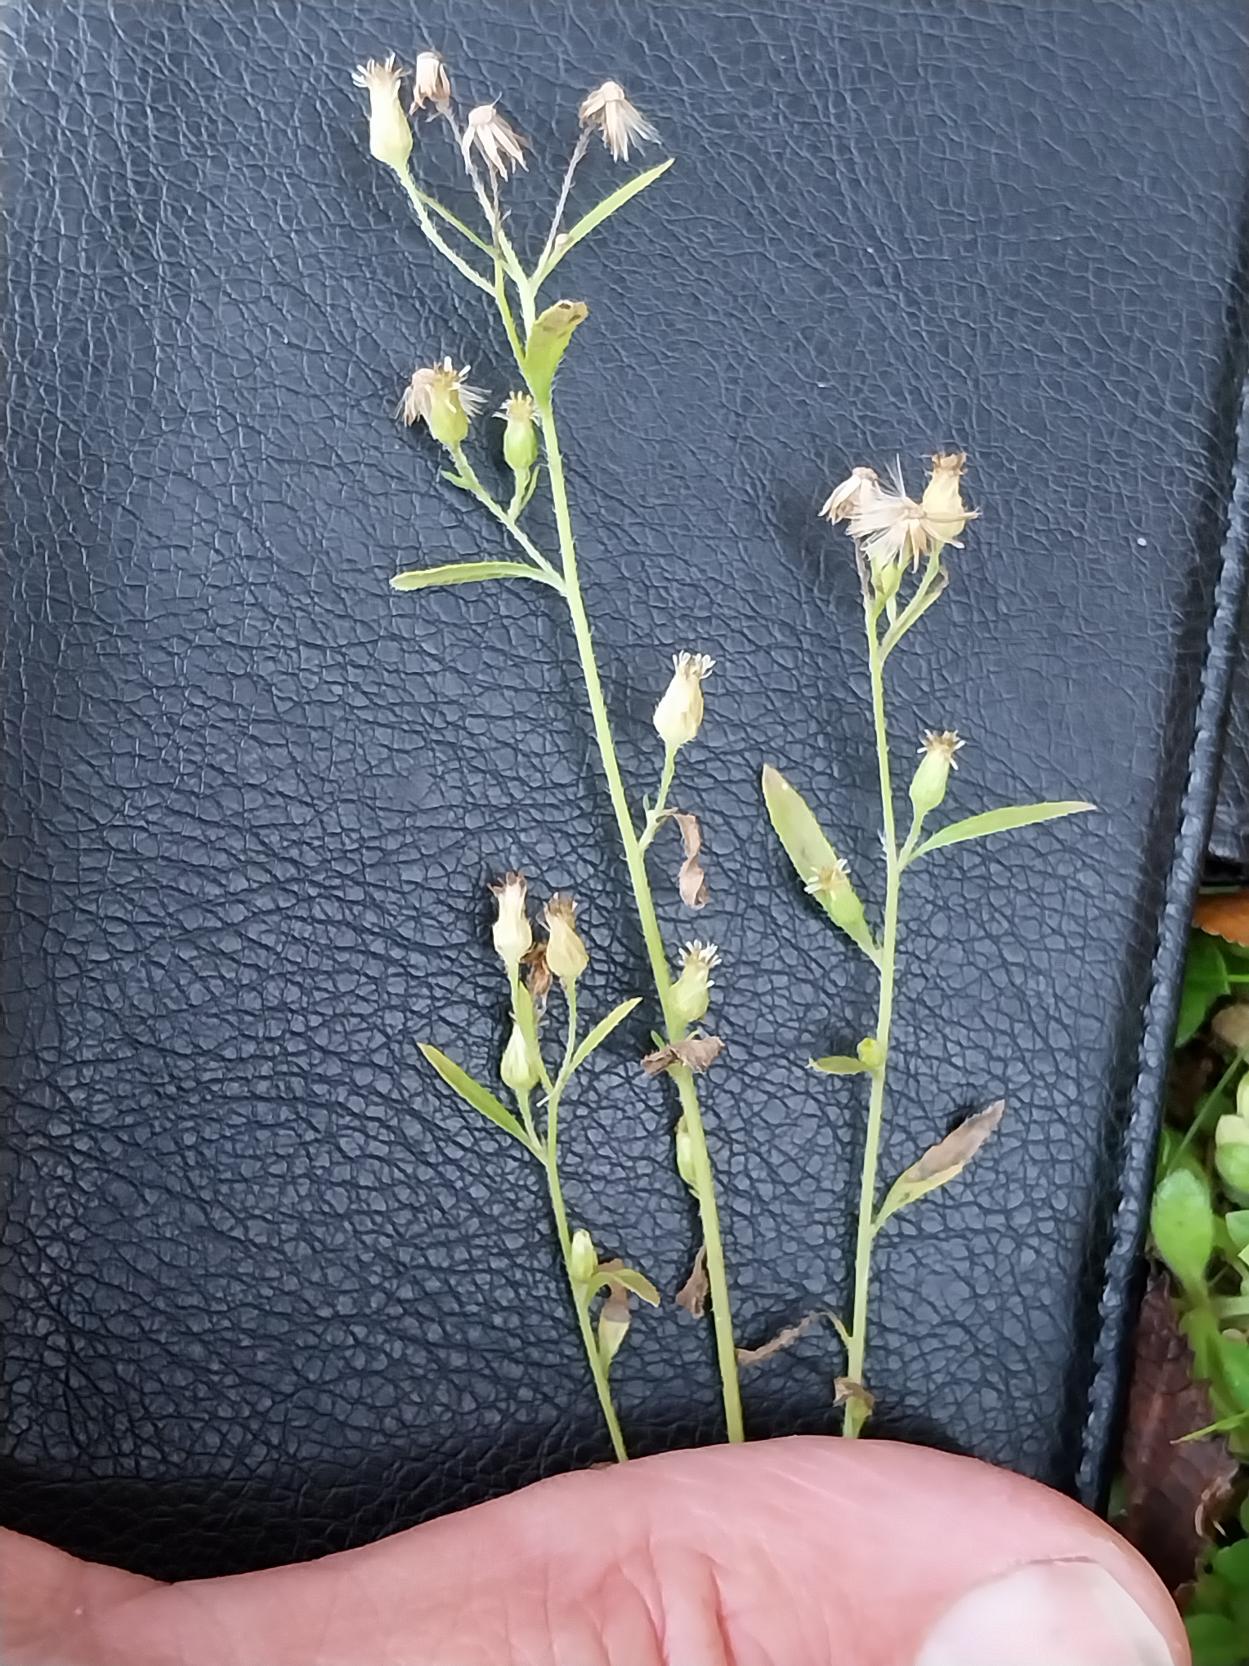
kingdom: Plantae
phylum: Tracheophyta
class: Magnoliopsida
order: Asterales
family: Asteraceae
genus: Erigeron
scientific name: Erigeron canadensis
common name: Kanadisk bakkestjerne
